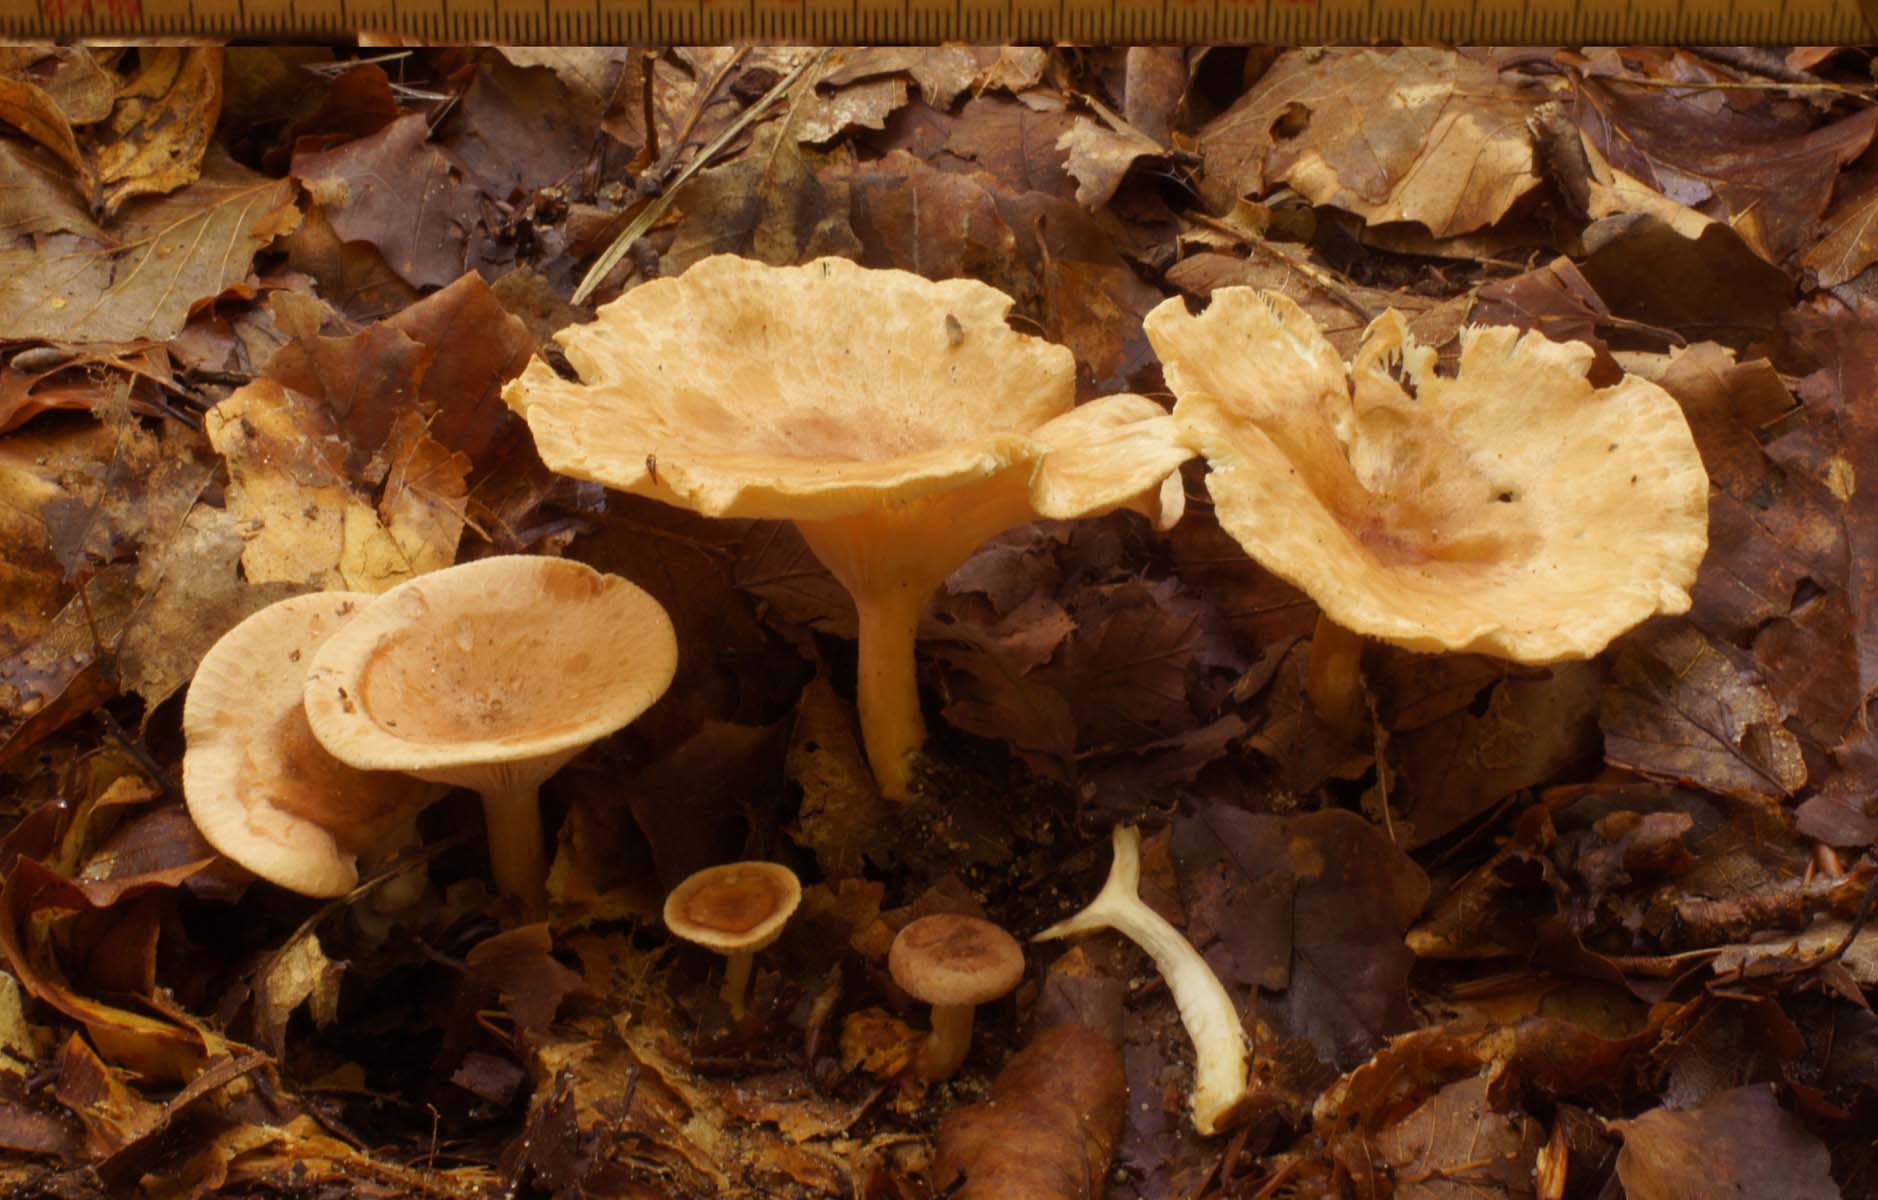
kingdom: Fungi
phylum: Basidiomycota
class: Agaricomycetes
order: Agaricales
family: Tricholomataceae
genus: Infundibulicybe
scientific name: Infundibulicybe gibba
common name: almindelig tragthat
